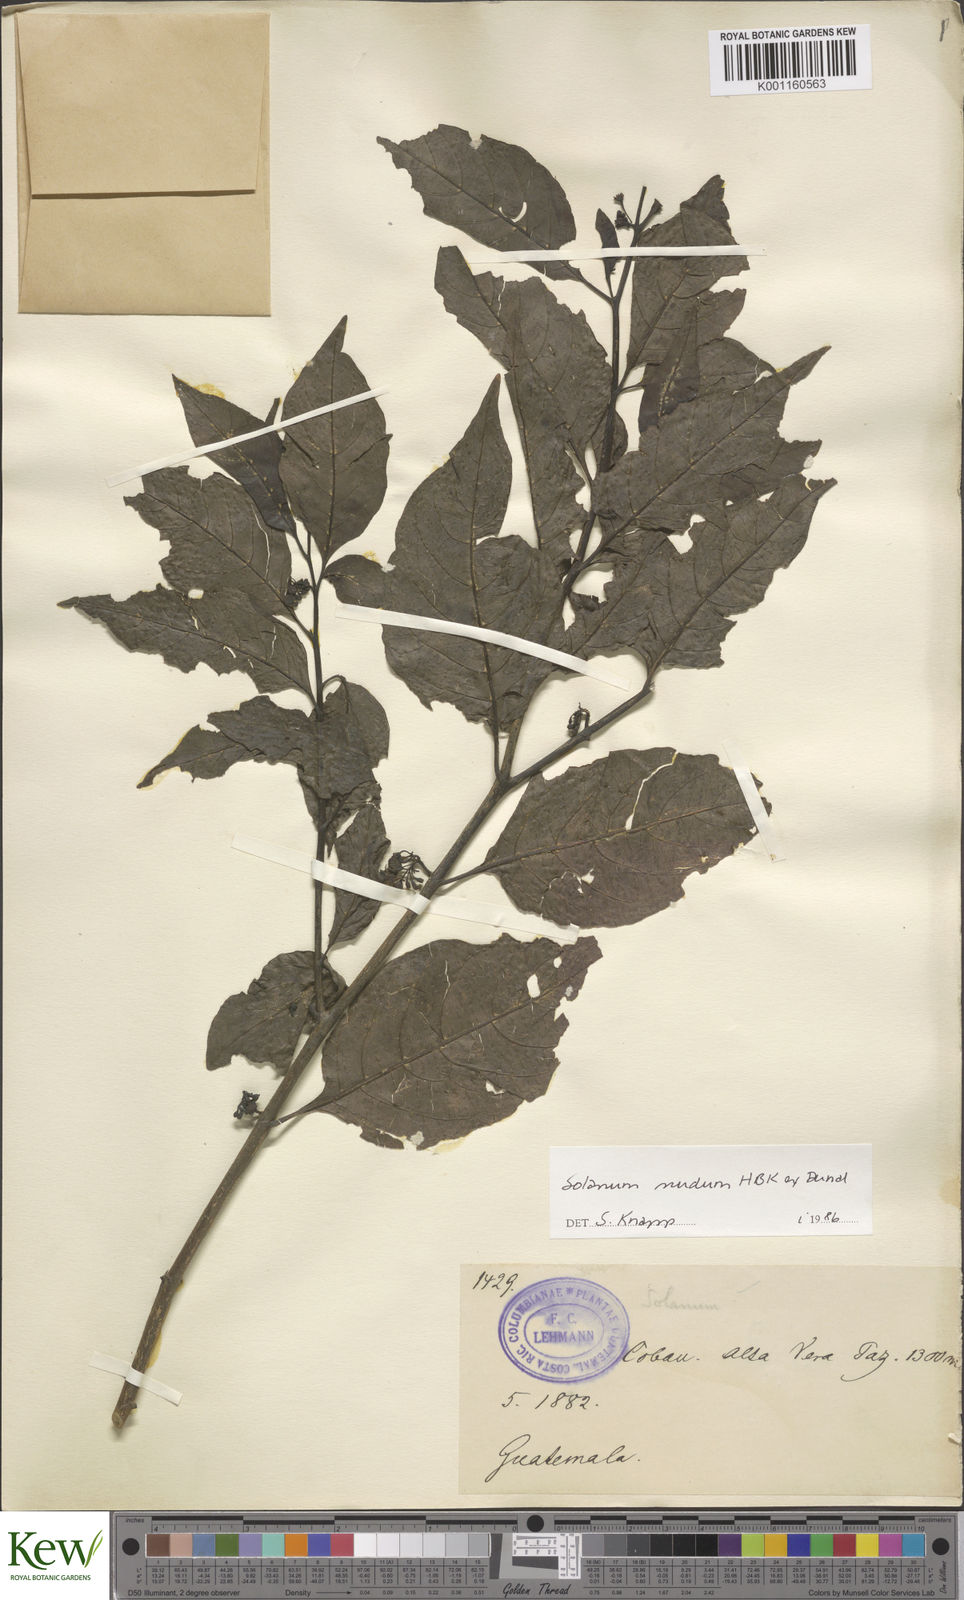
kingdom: Plantae
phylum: Tracheophyta
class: Magnoliopsida
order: Solanales
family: Solanaceae
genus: Solanum
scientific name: Solanum nudum
